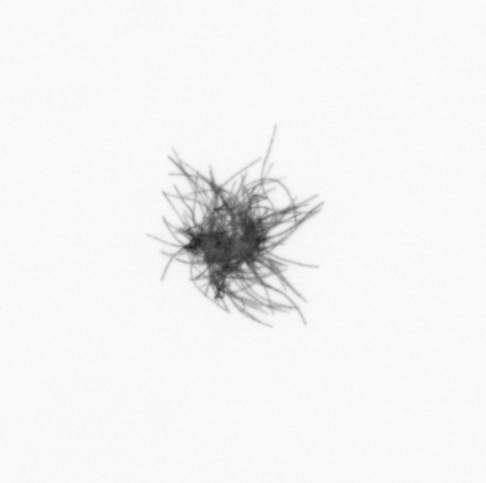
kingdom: Bacteria
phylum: Cyanobacteria
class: Cyanobacteriia
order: Cyanobacteriales
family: Microcoleaceae
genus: Trichodesmium
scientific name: Trichodesmium
